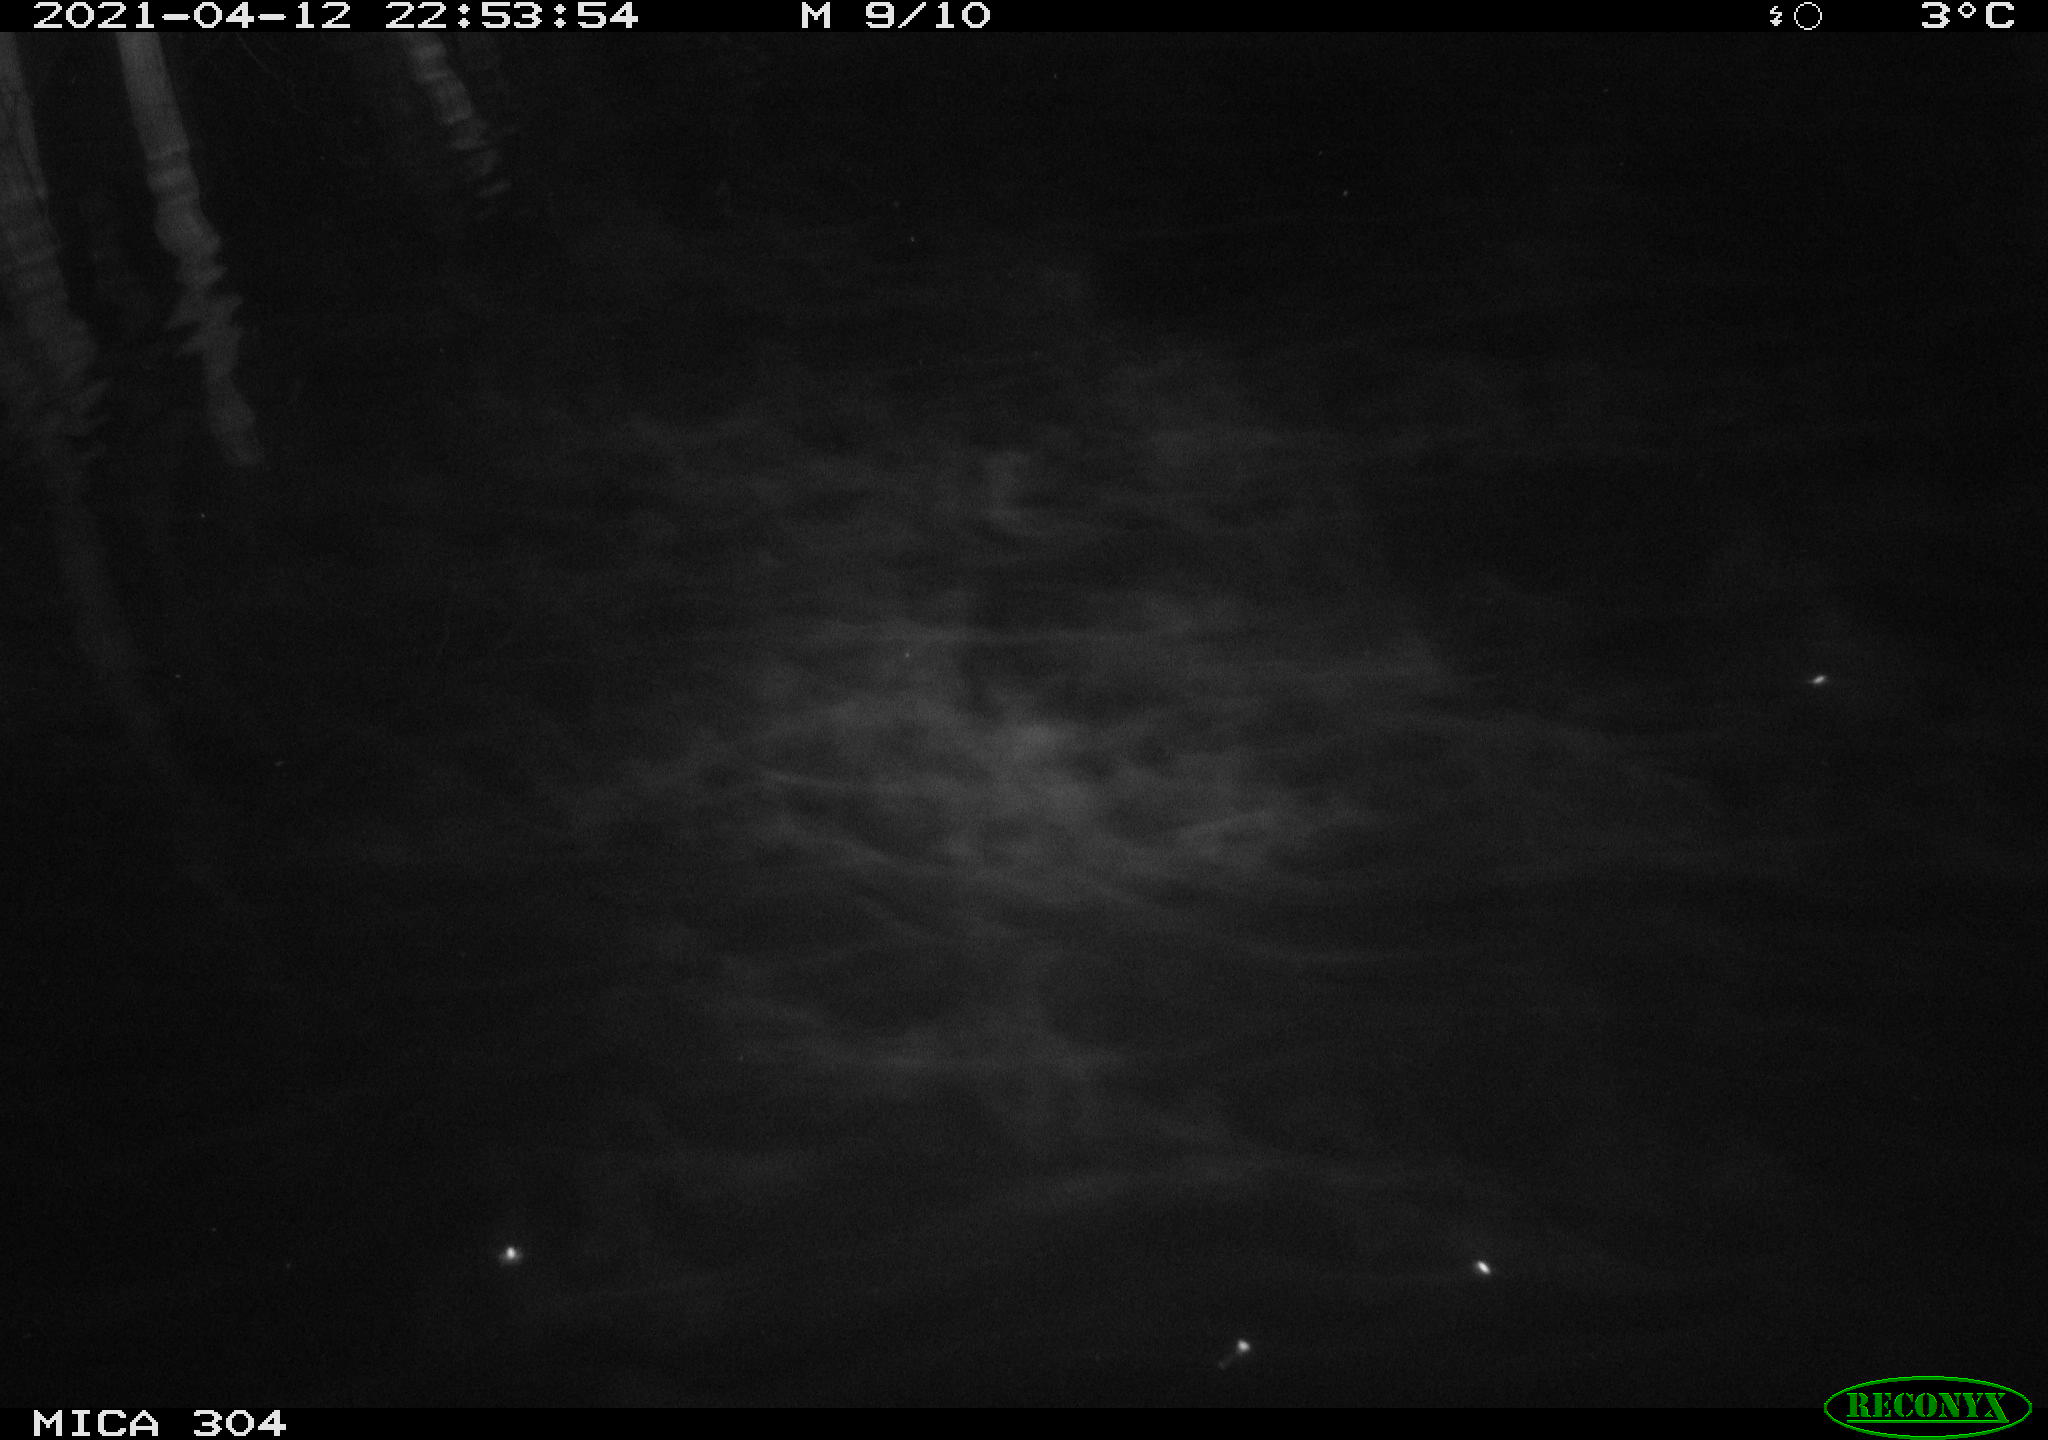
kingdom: Animalia
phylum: Chordata
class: Mammalia
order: Rodentia
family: Cricetidae
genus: Ondatra
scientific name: Ondatra zibethicus
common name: Muskrat
